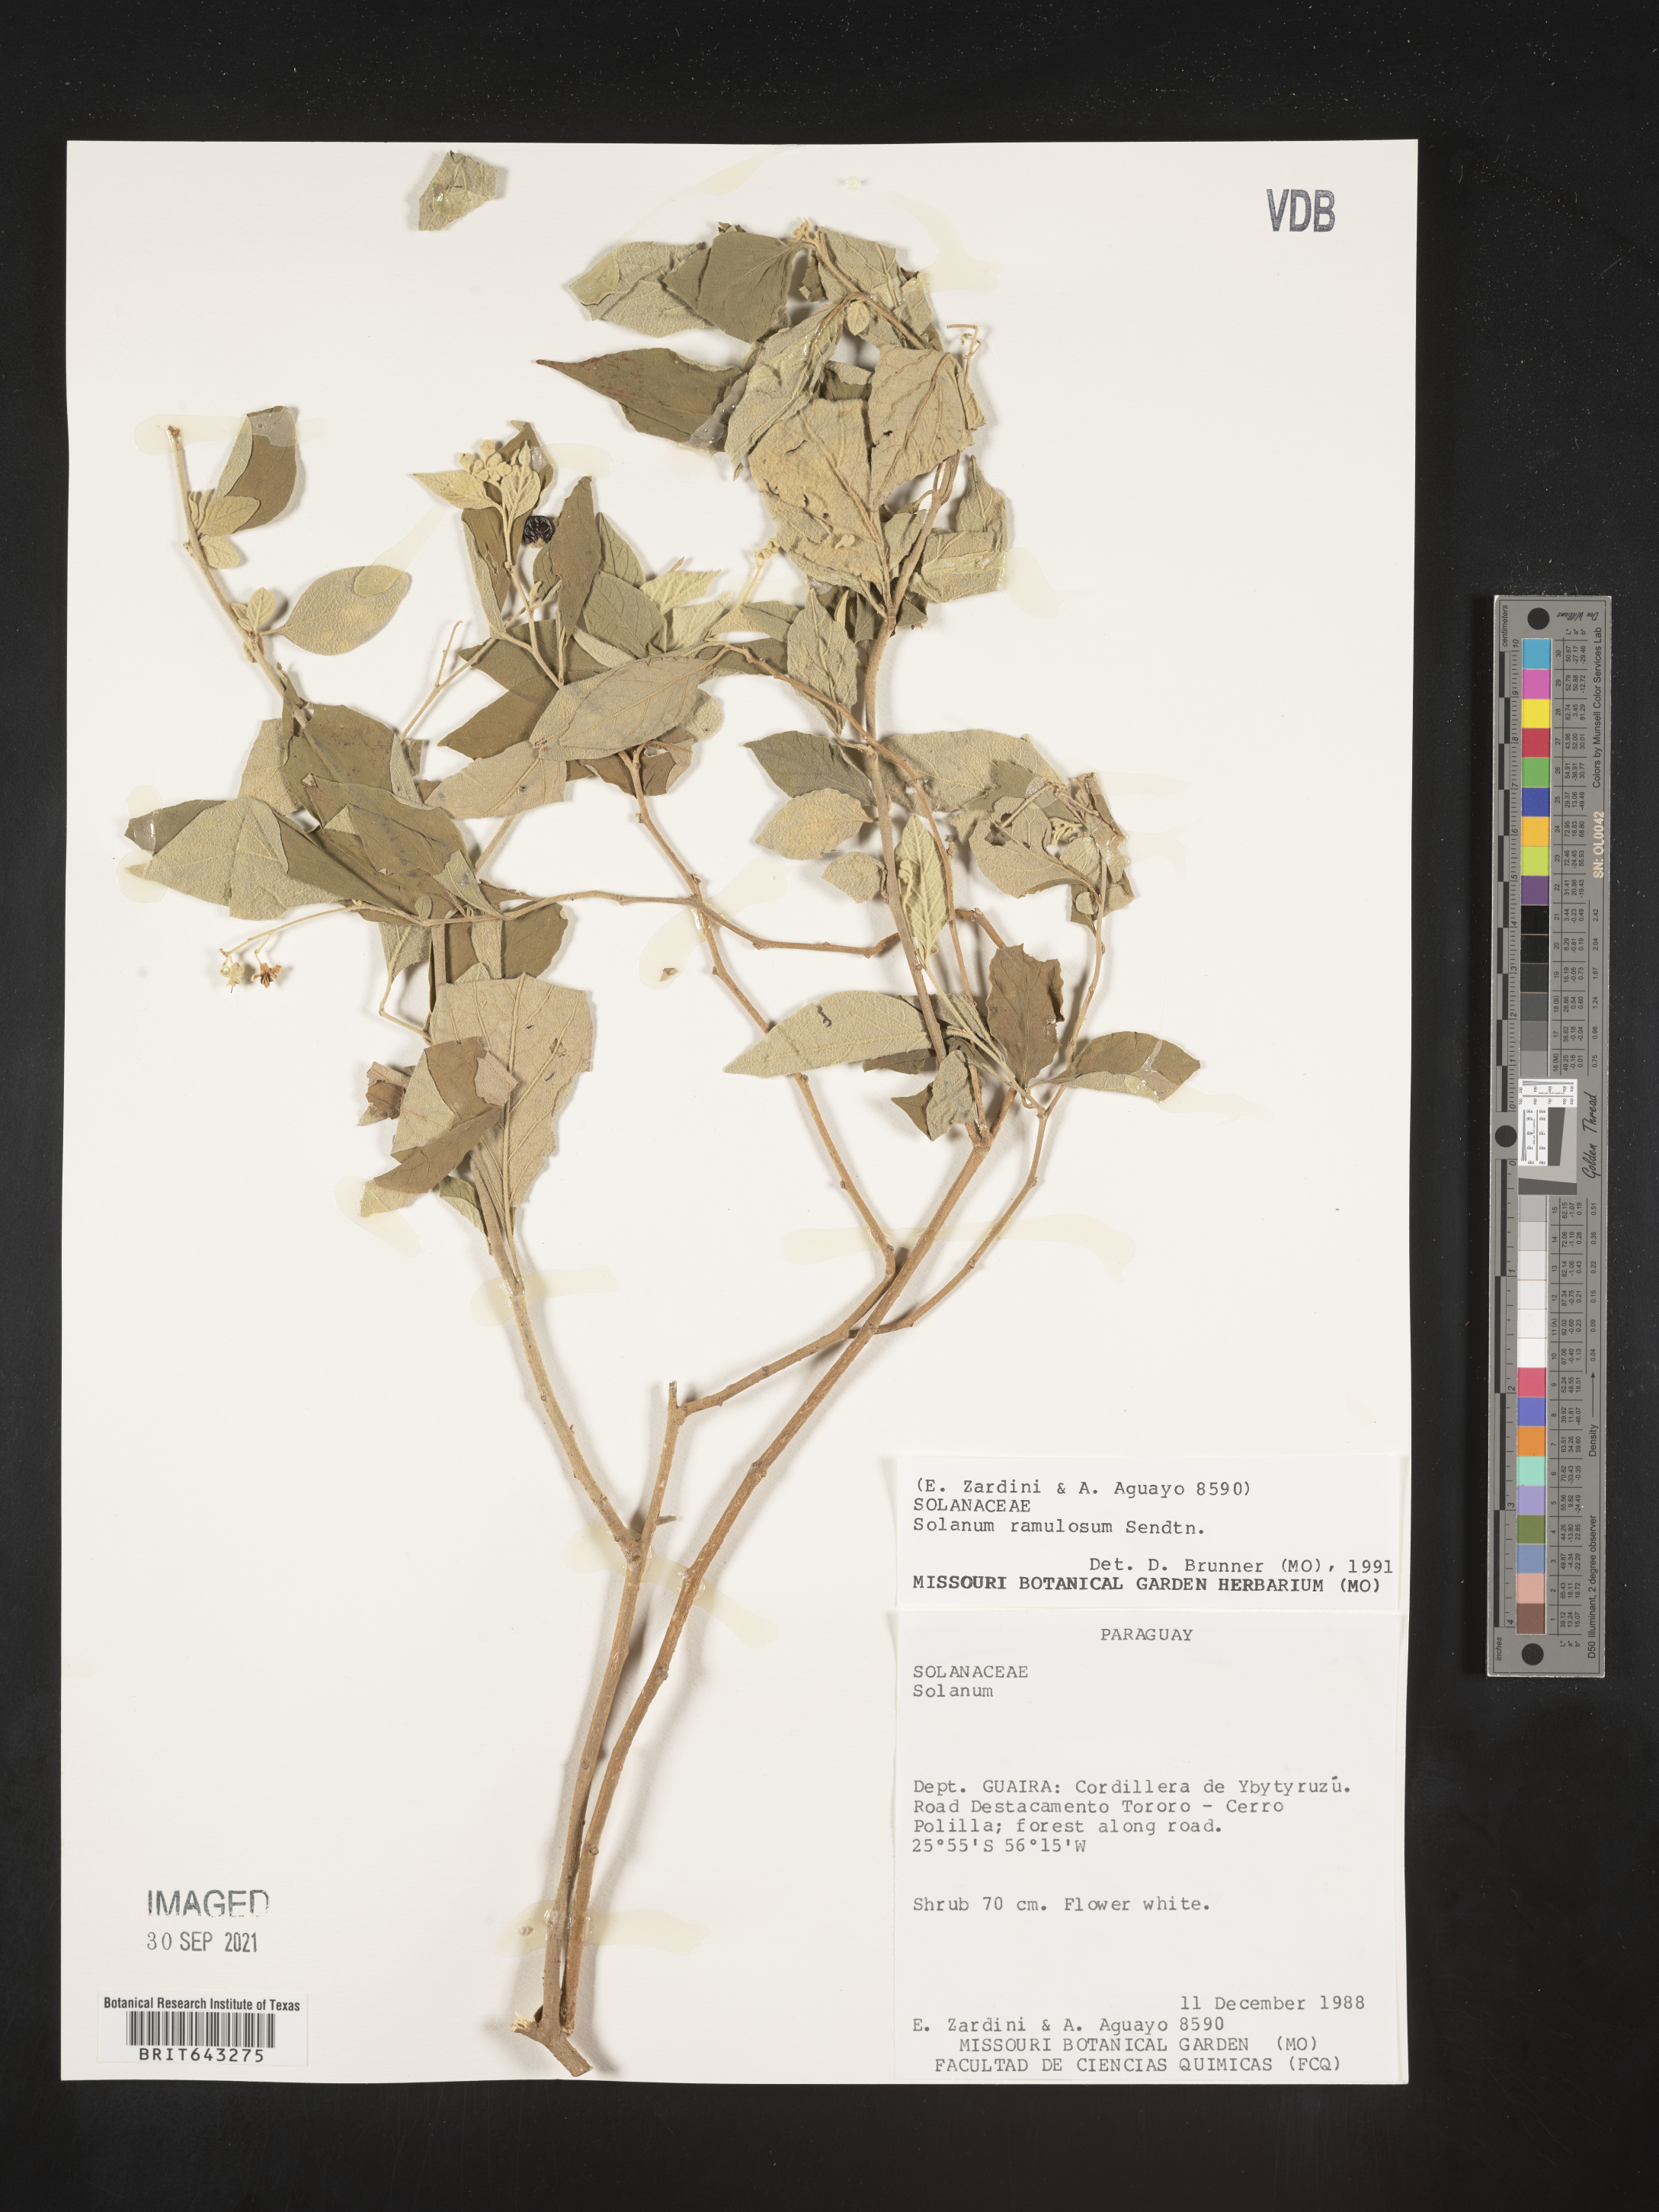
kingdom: Plantae
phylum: Tracheophyta
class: Magnoliopsida
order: Solanales
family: Solanaceae
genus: Solanum
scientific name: Solanum
